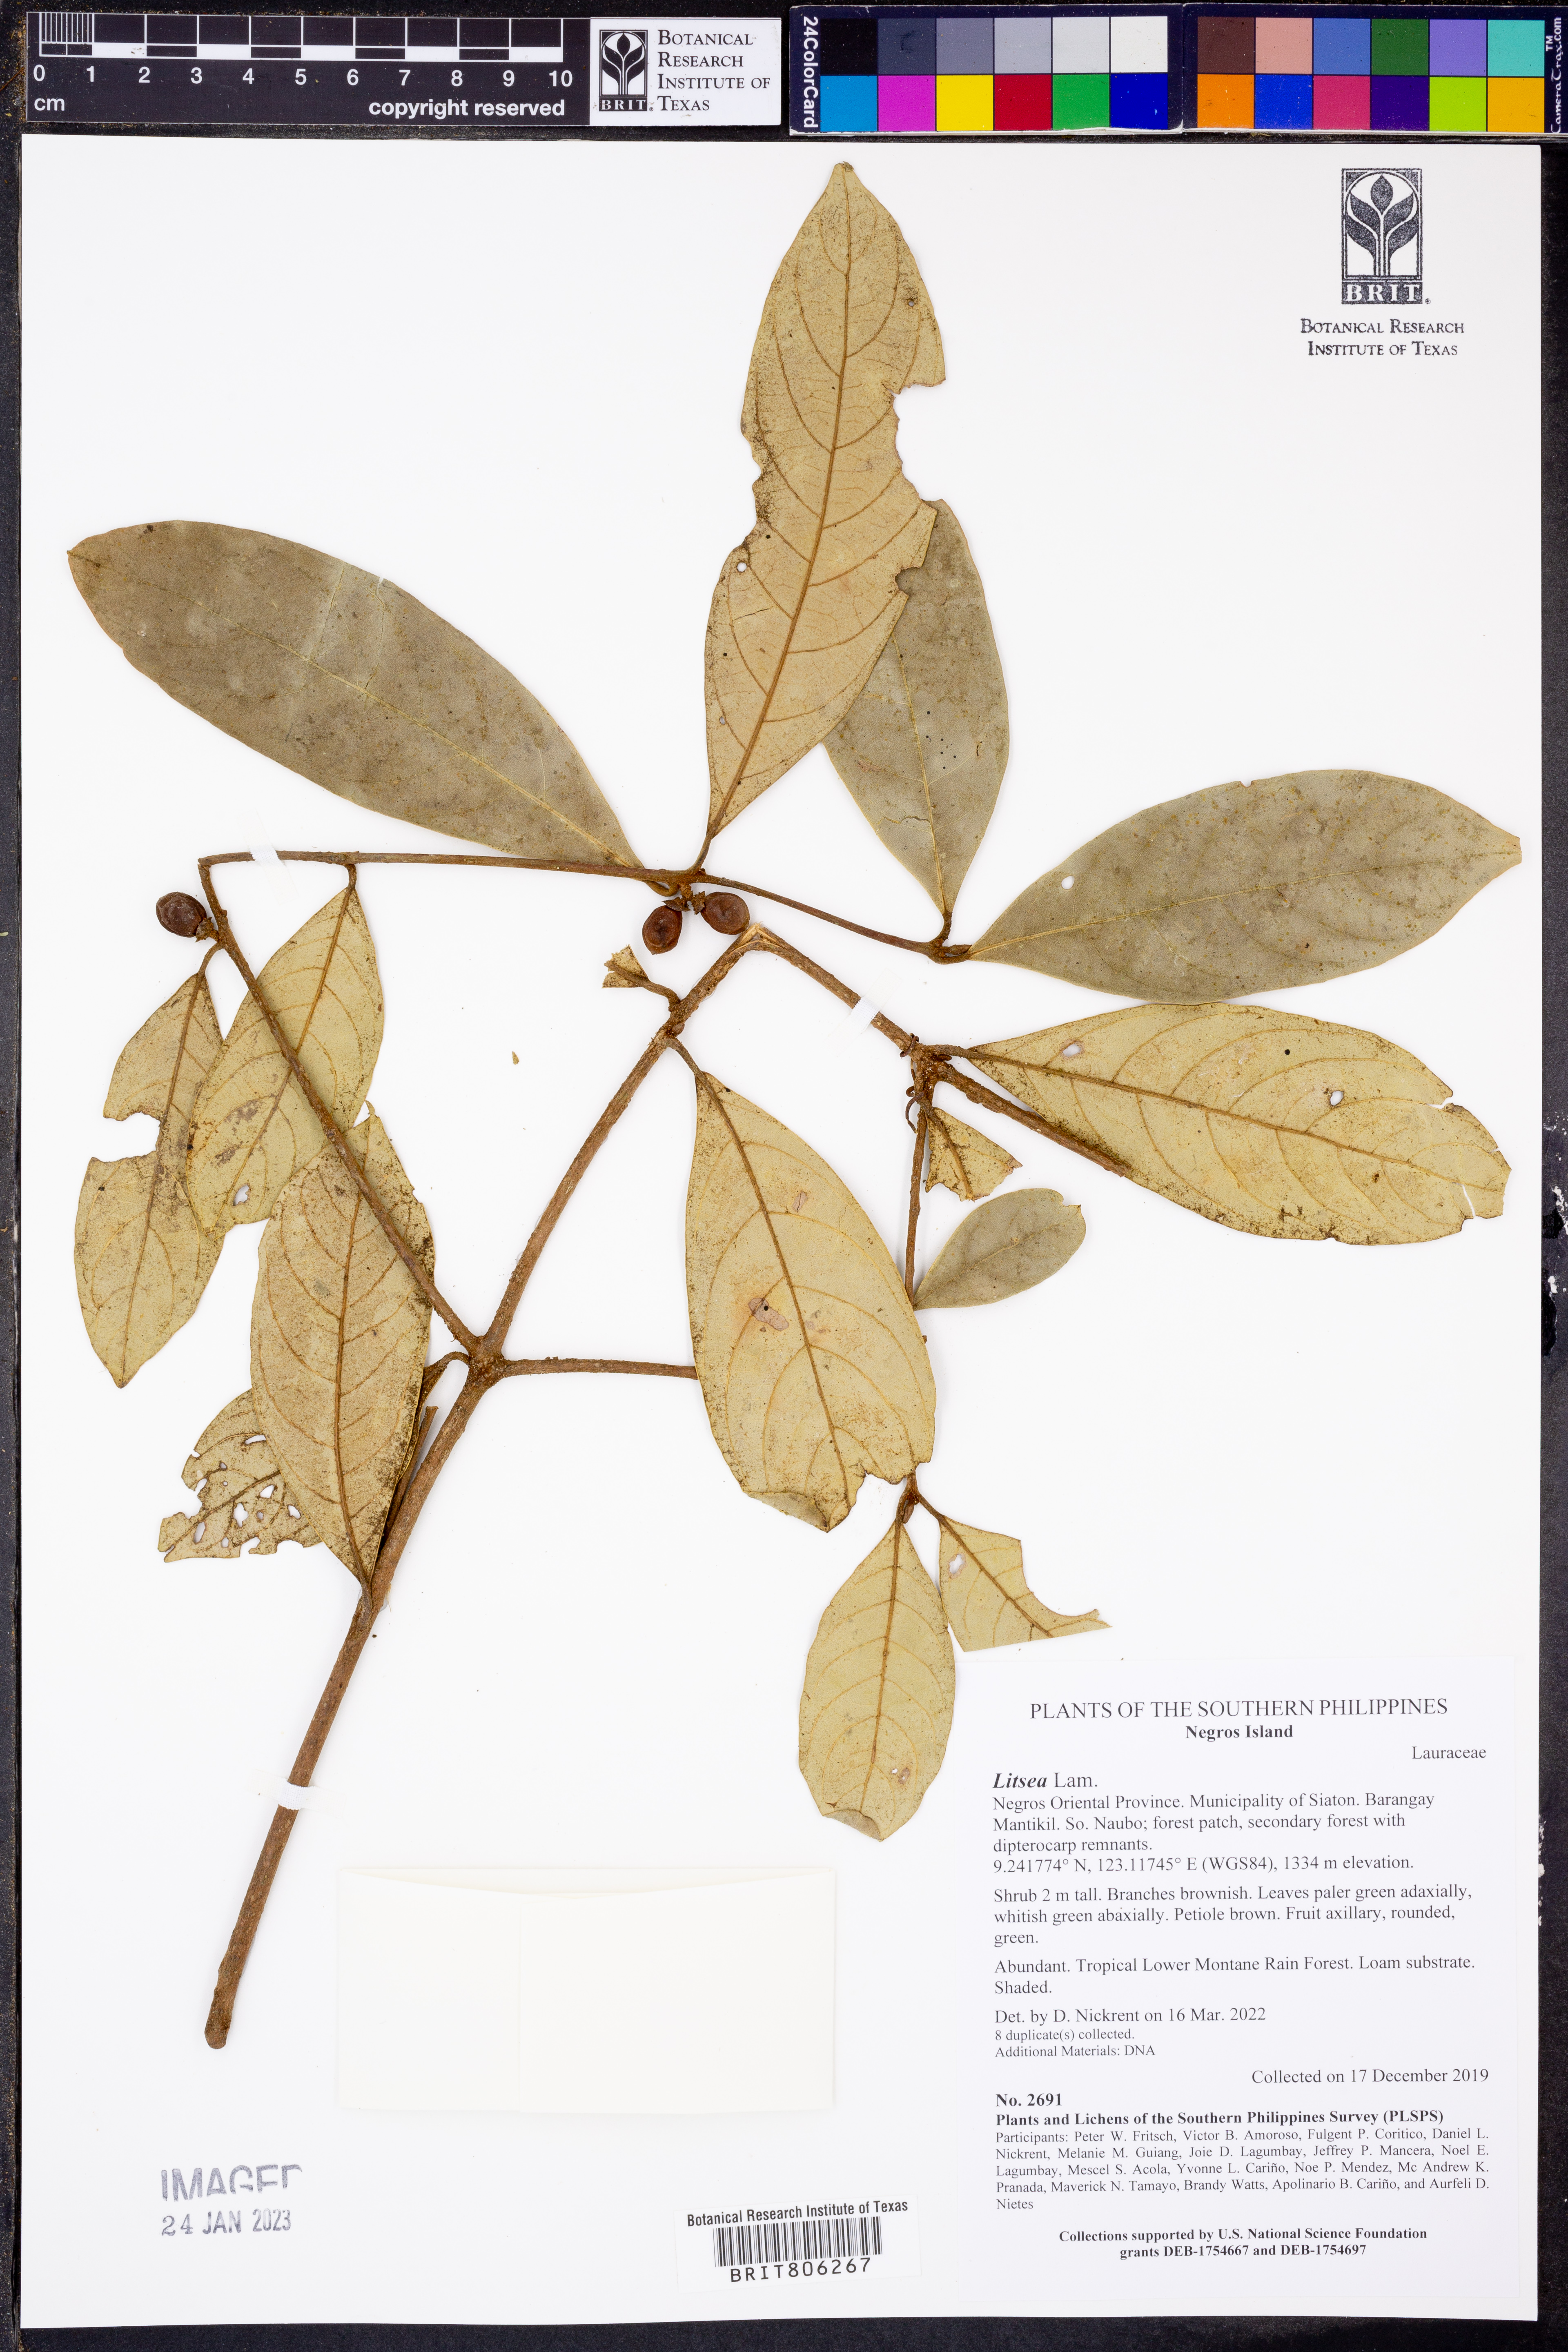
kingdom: Plantae
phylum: Tracheophyta
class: Magnoliopsida
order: Laurales
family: Lauraceae
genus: Litsea
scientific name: Litsea
